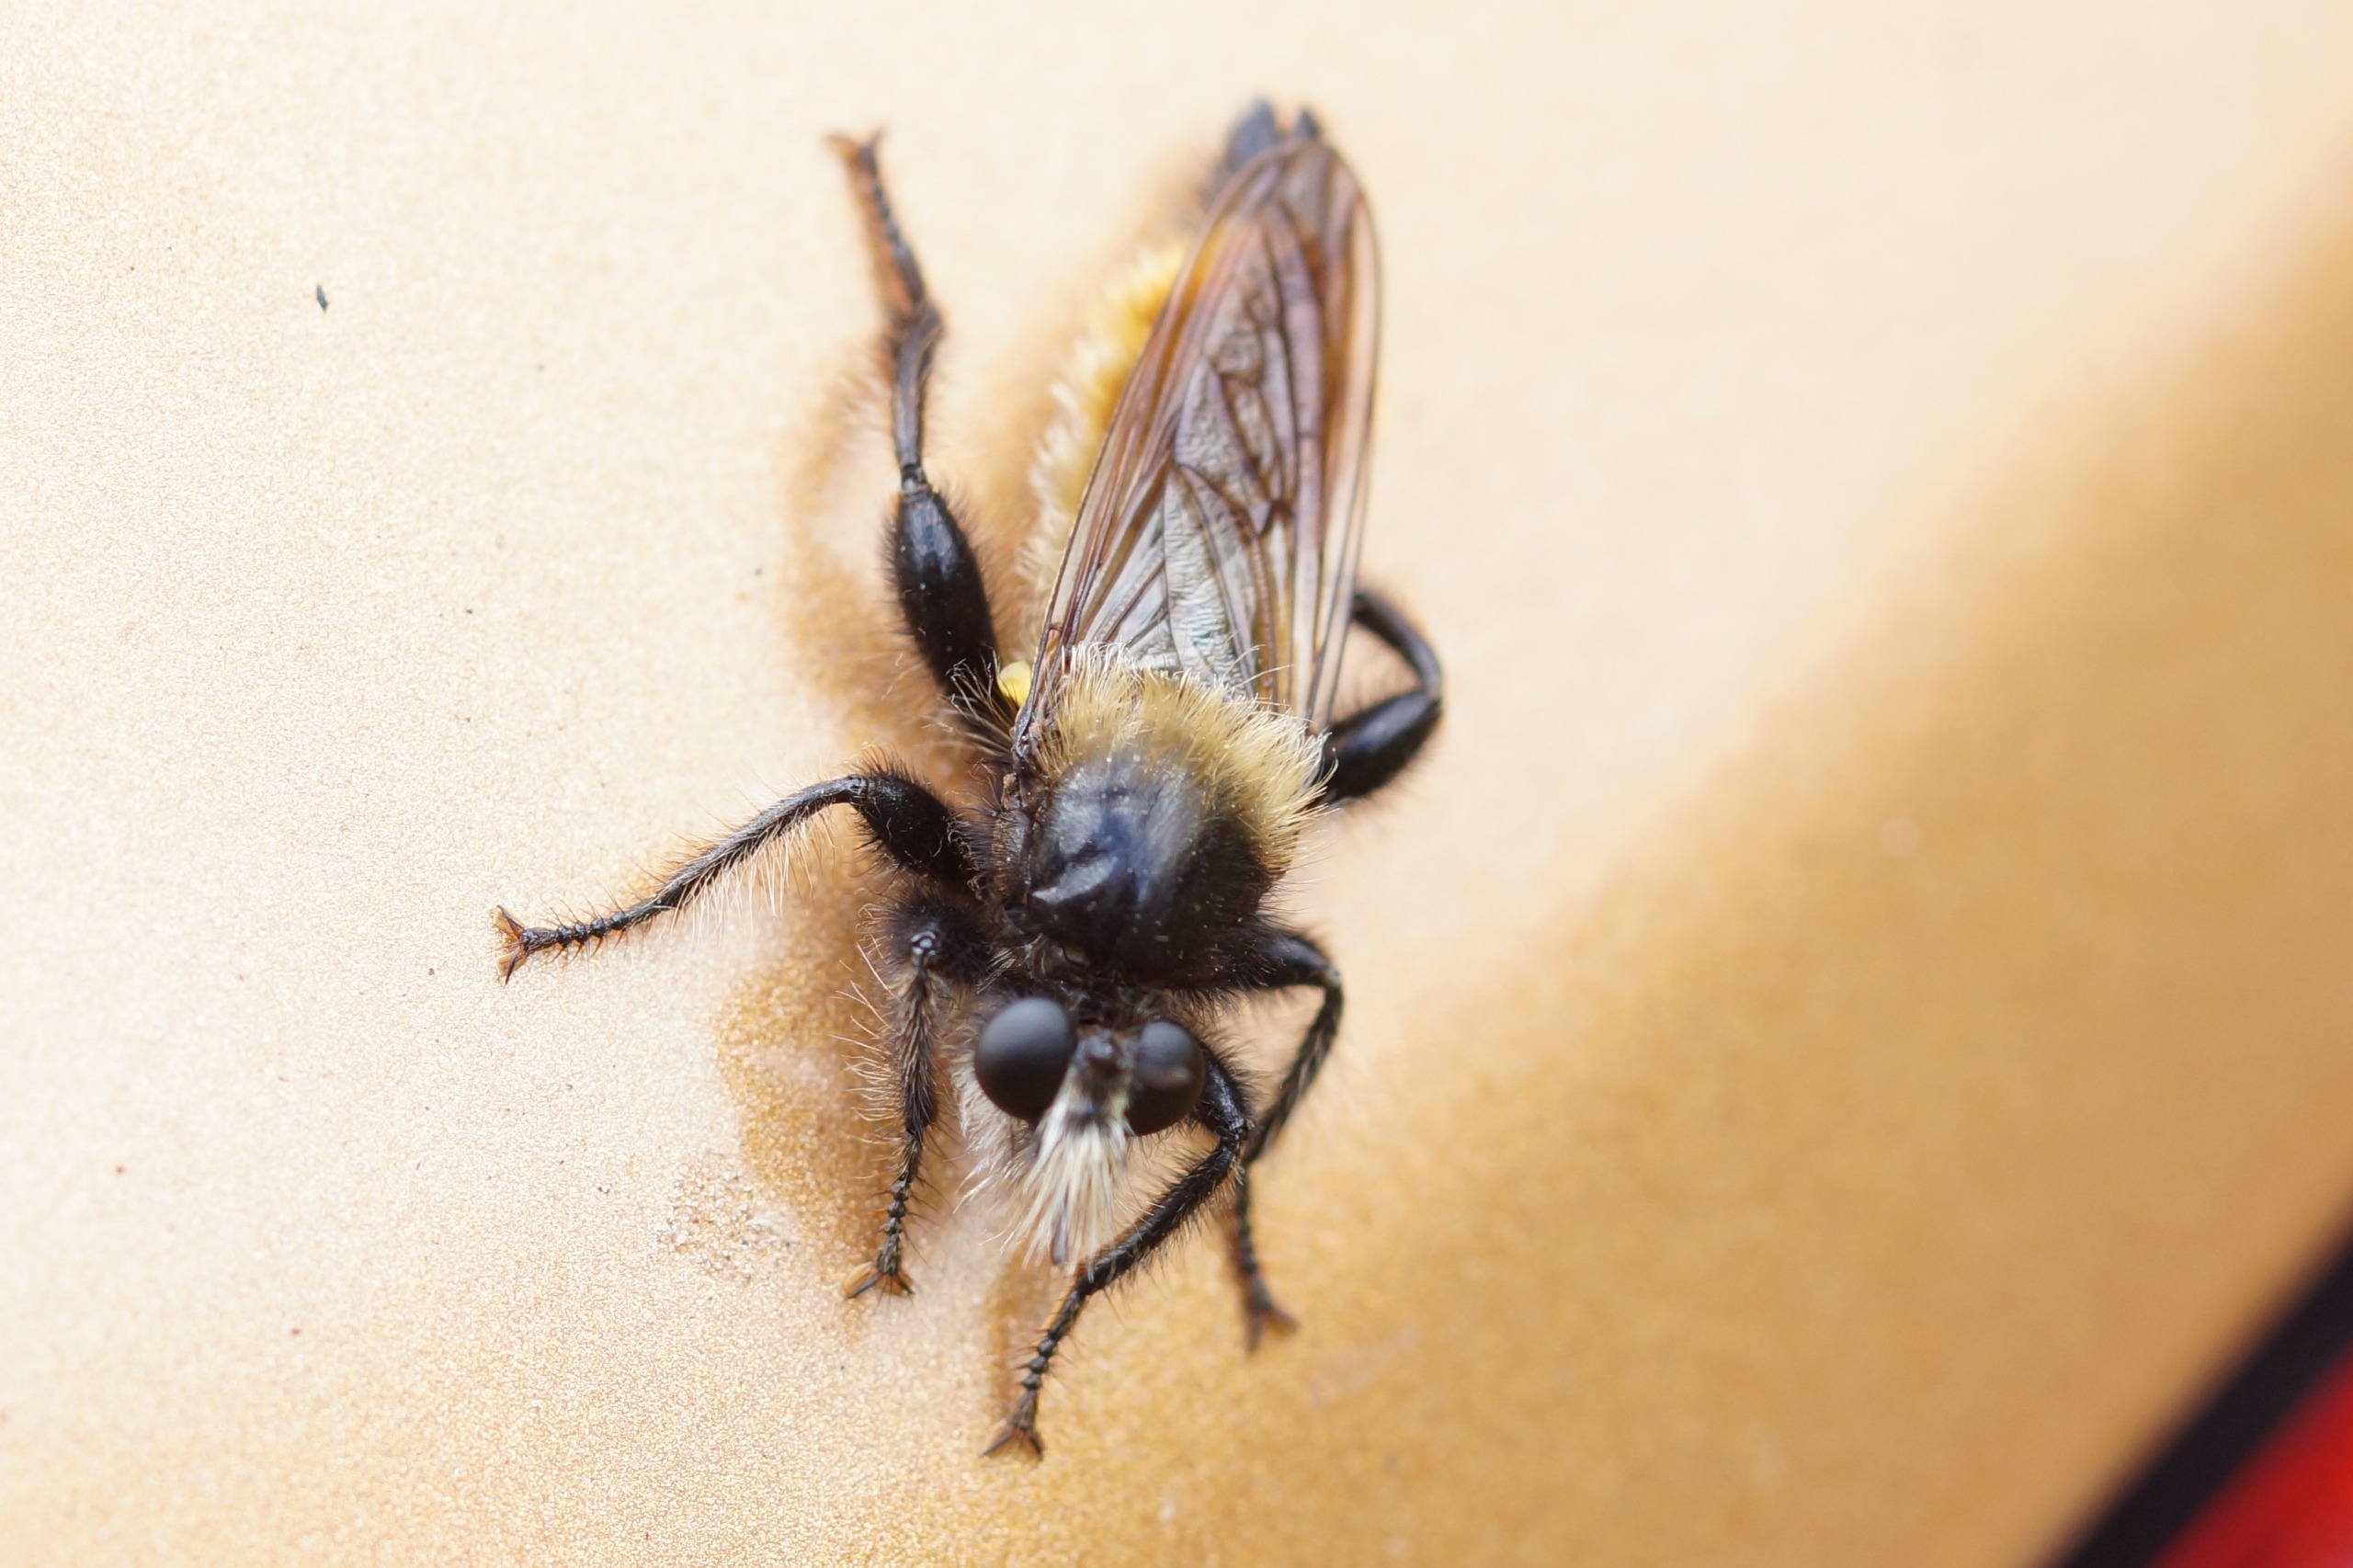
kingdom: Animalia
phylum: Arthropoda
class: Insecta
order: Diptera
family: Asilidae
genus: Laphria
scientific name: Laphria flava
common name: Gul vedrovflue
